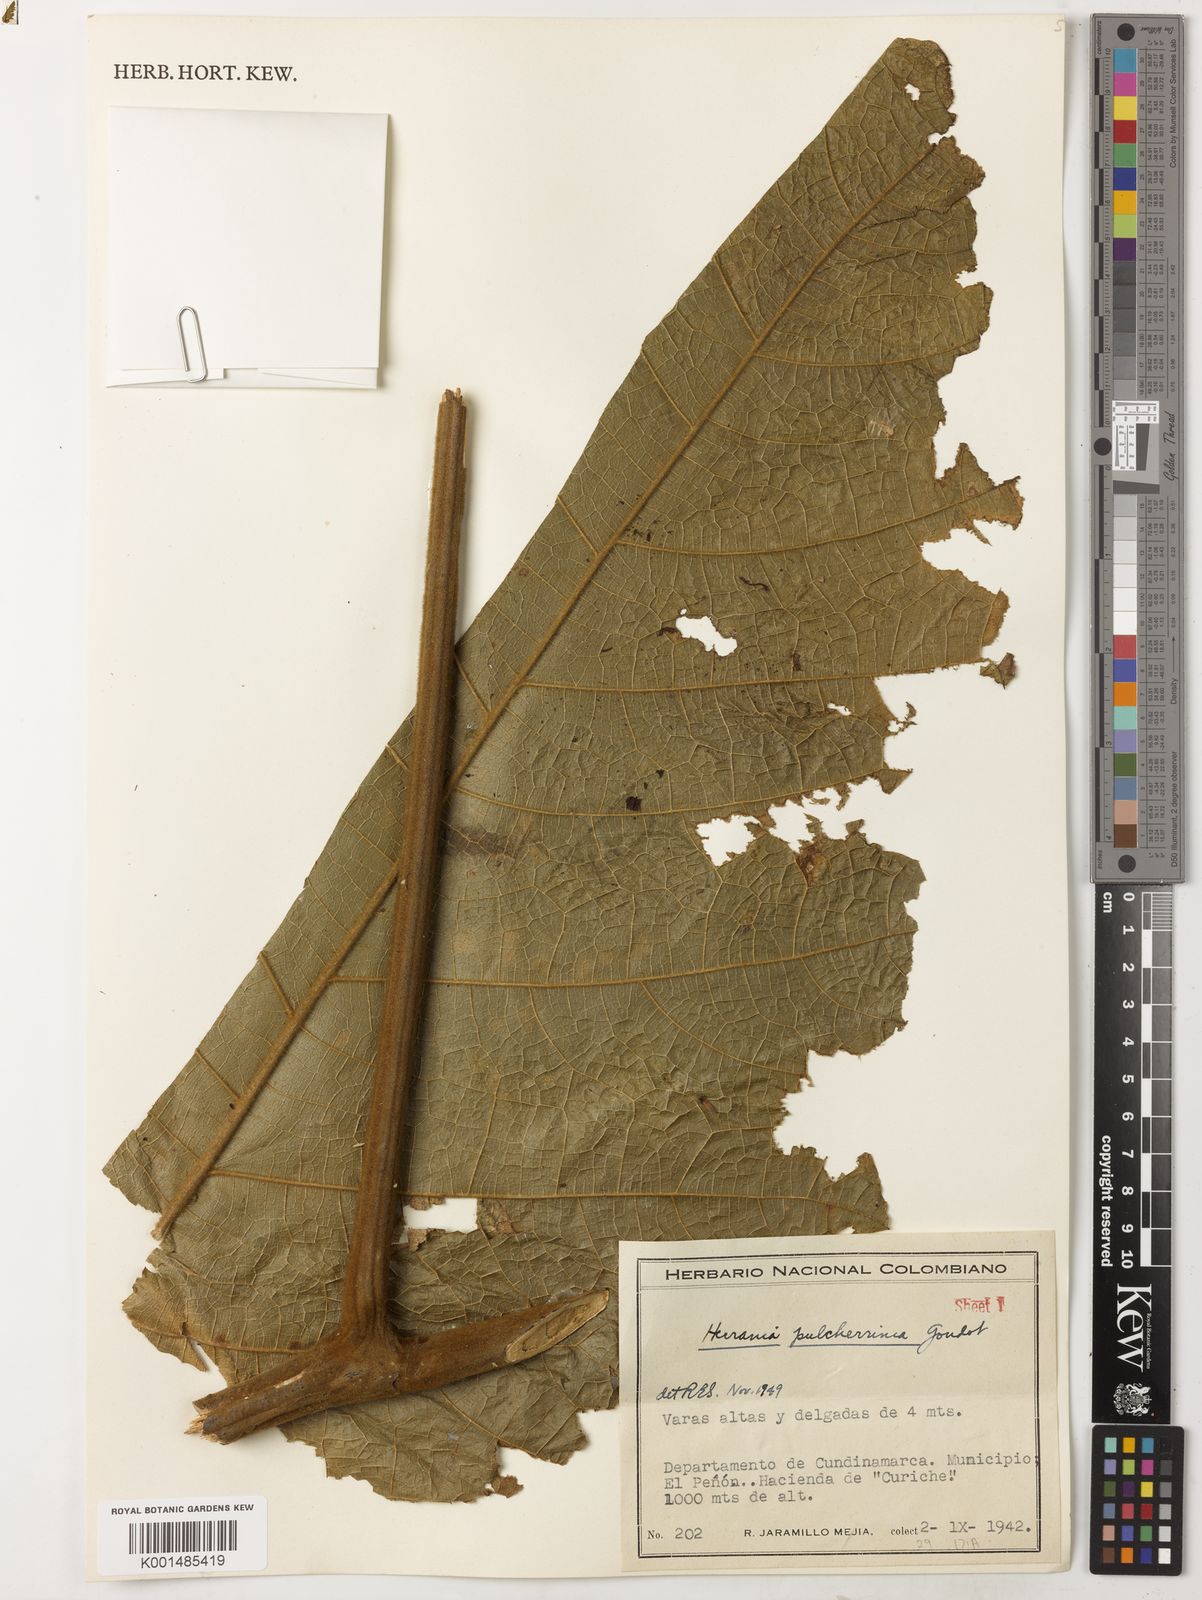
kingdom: Plantae
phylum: Tracheophyta
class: Magnoliopsida
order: Malvales
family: Malvaceae
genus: Herrania
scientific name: Herrania pulcherrima
